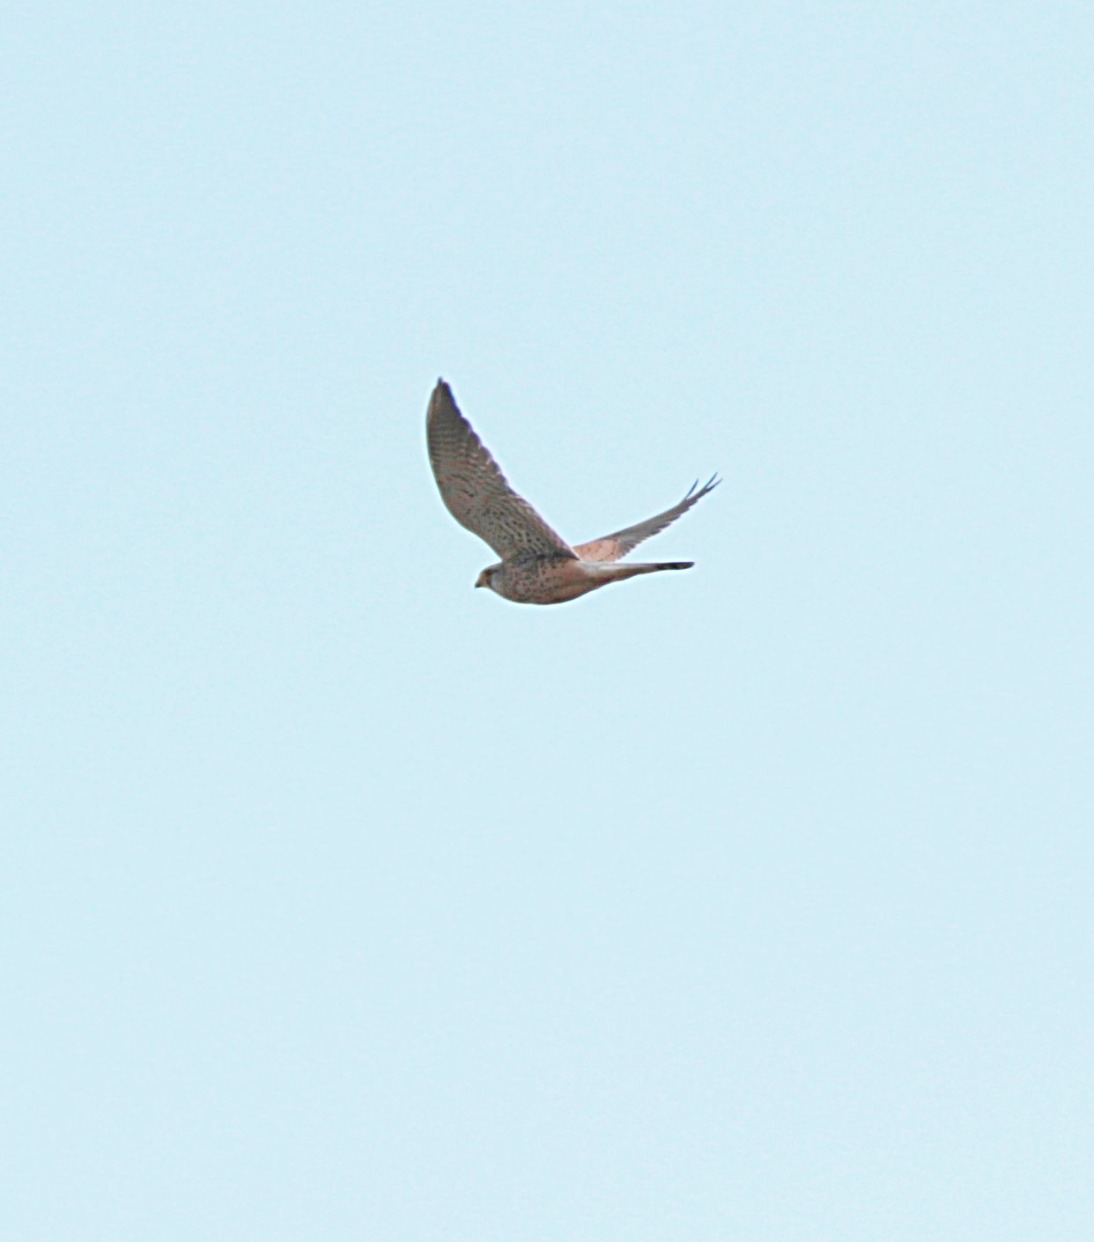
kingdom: Animalia
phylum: Chordata
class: Aves
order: Falconiformes
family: Falconidae
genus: Falco
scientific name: Falco tinnunculus
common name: Tårnfalk
